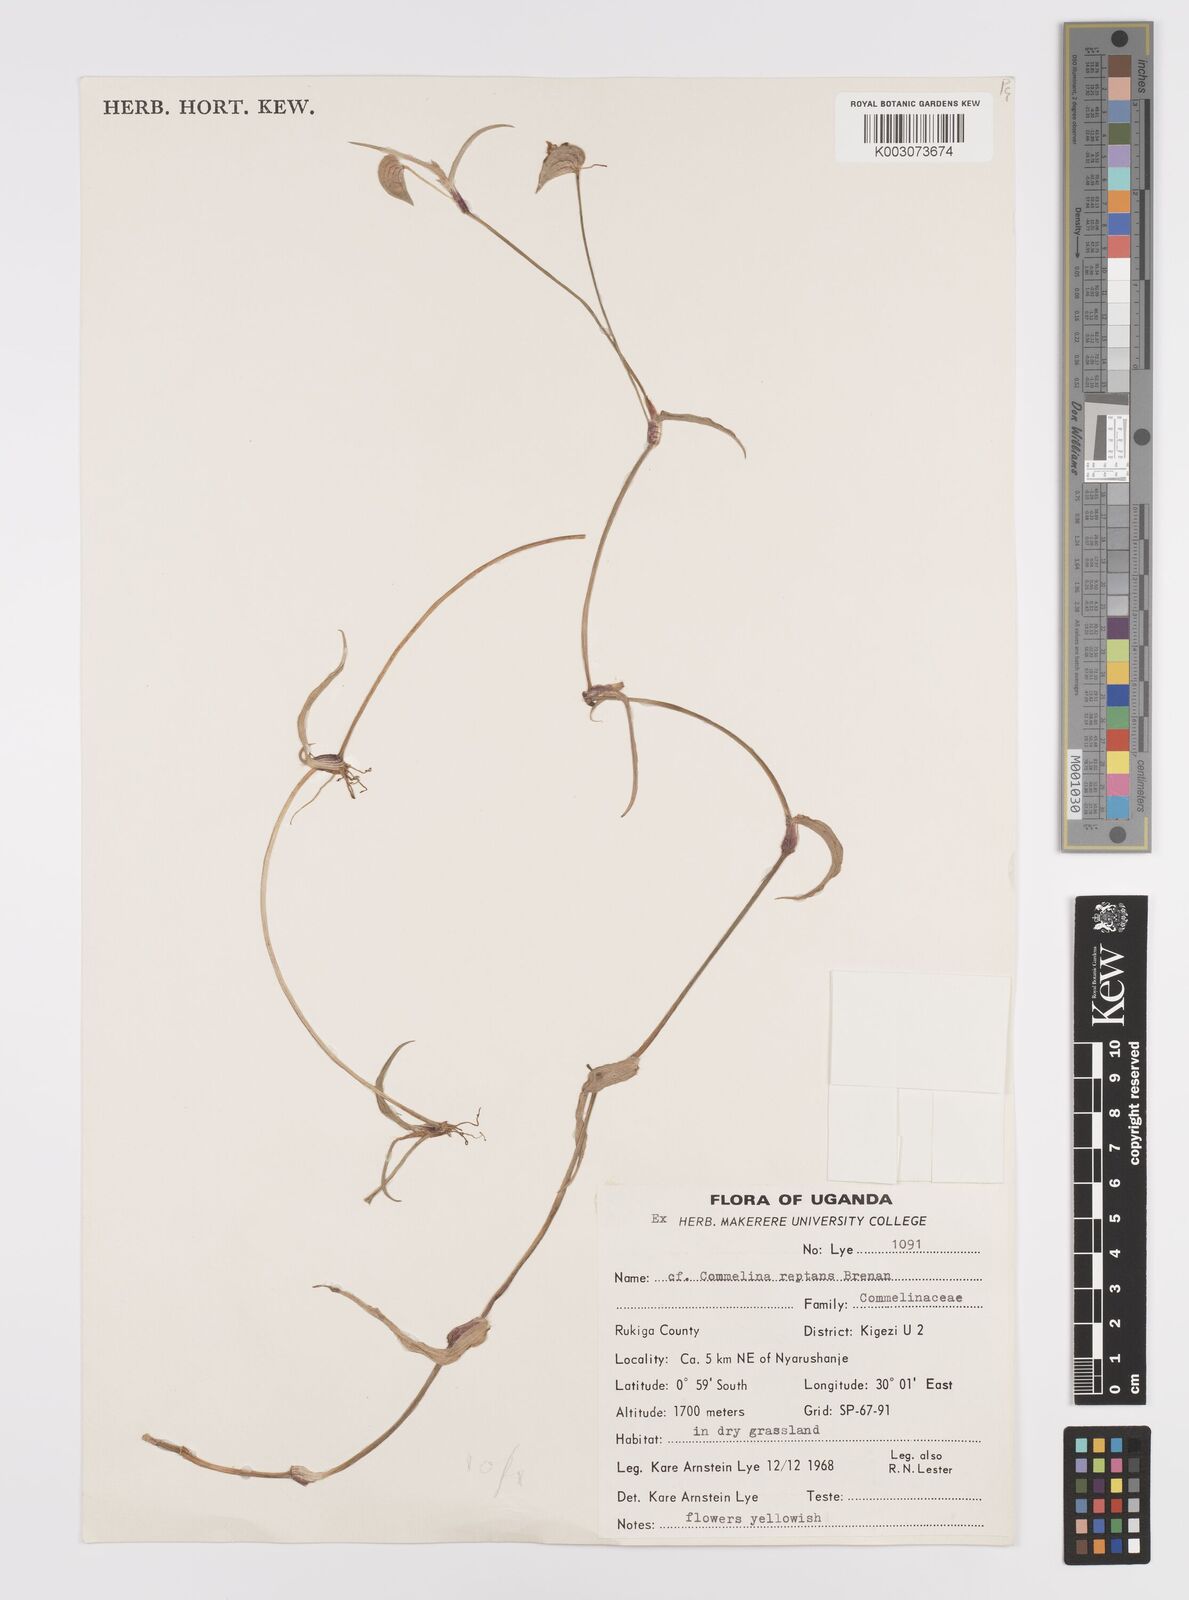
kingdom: Plantae
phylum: Tracheophyta
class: Liliopsida
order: Commelinales
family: Commelinaceae
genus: Commelina
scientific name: Commelina reptans
